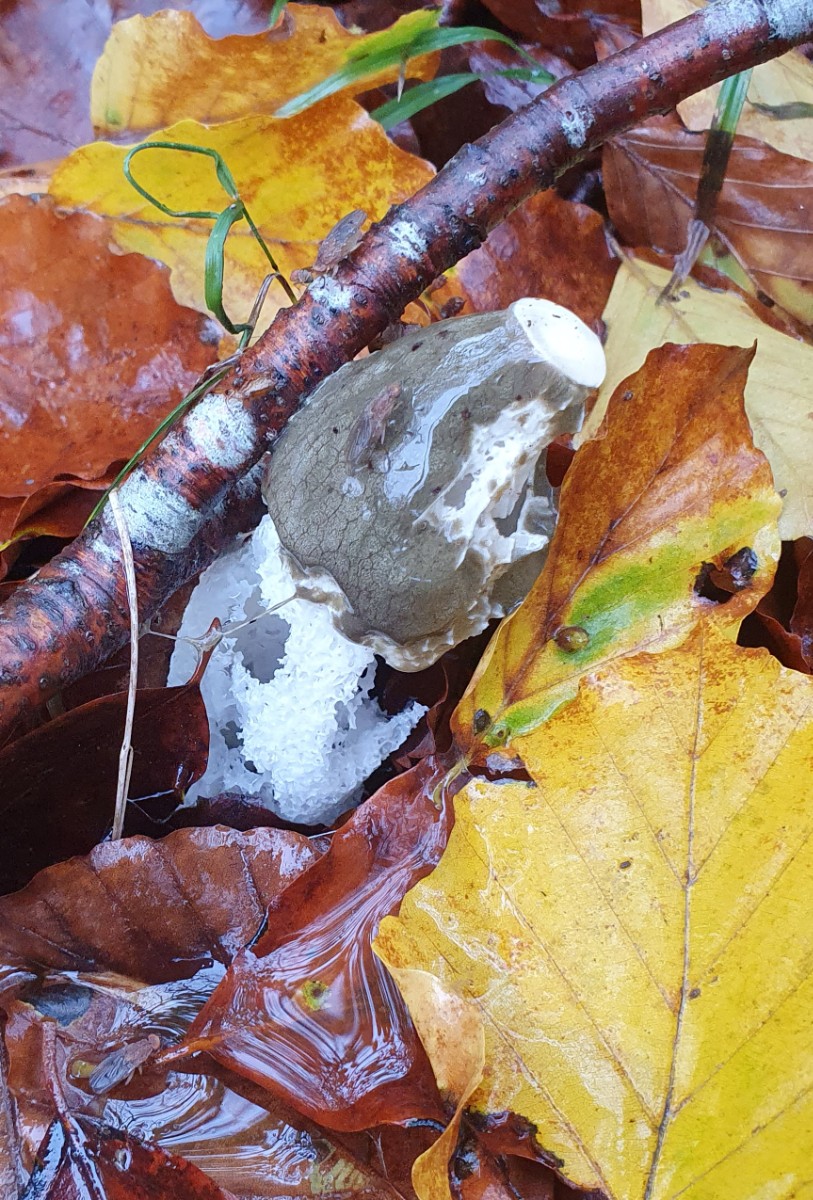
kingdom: Fungi
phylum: Basidiomycota
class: Agaricomycetes
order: Phallales
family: Phallaceae
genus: Phallus
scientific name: Phallus impudicus
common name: almindelig stinksvamp
